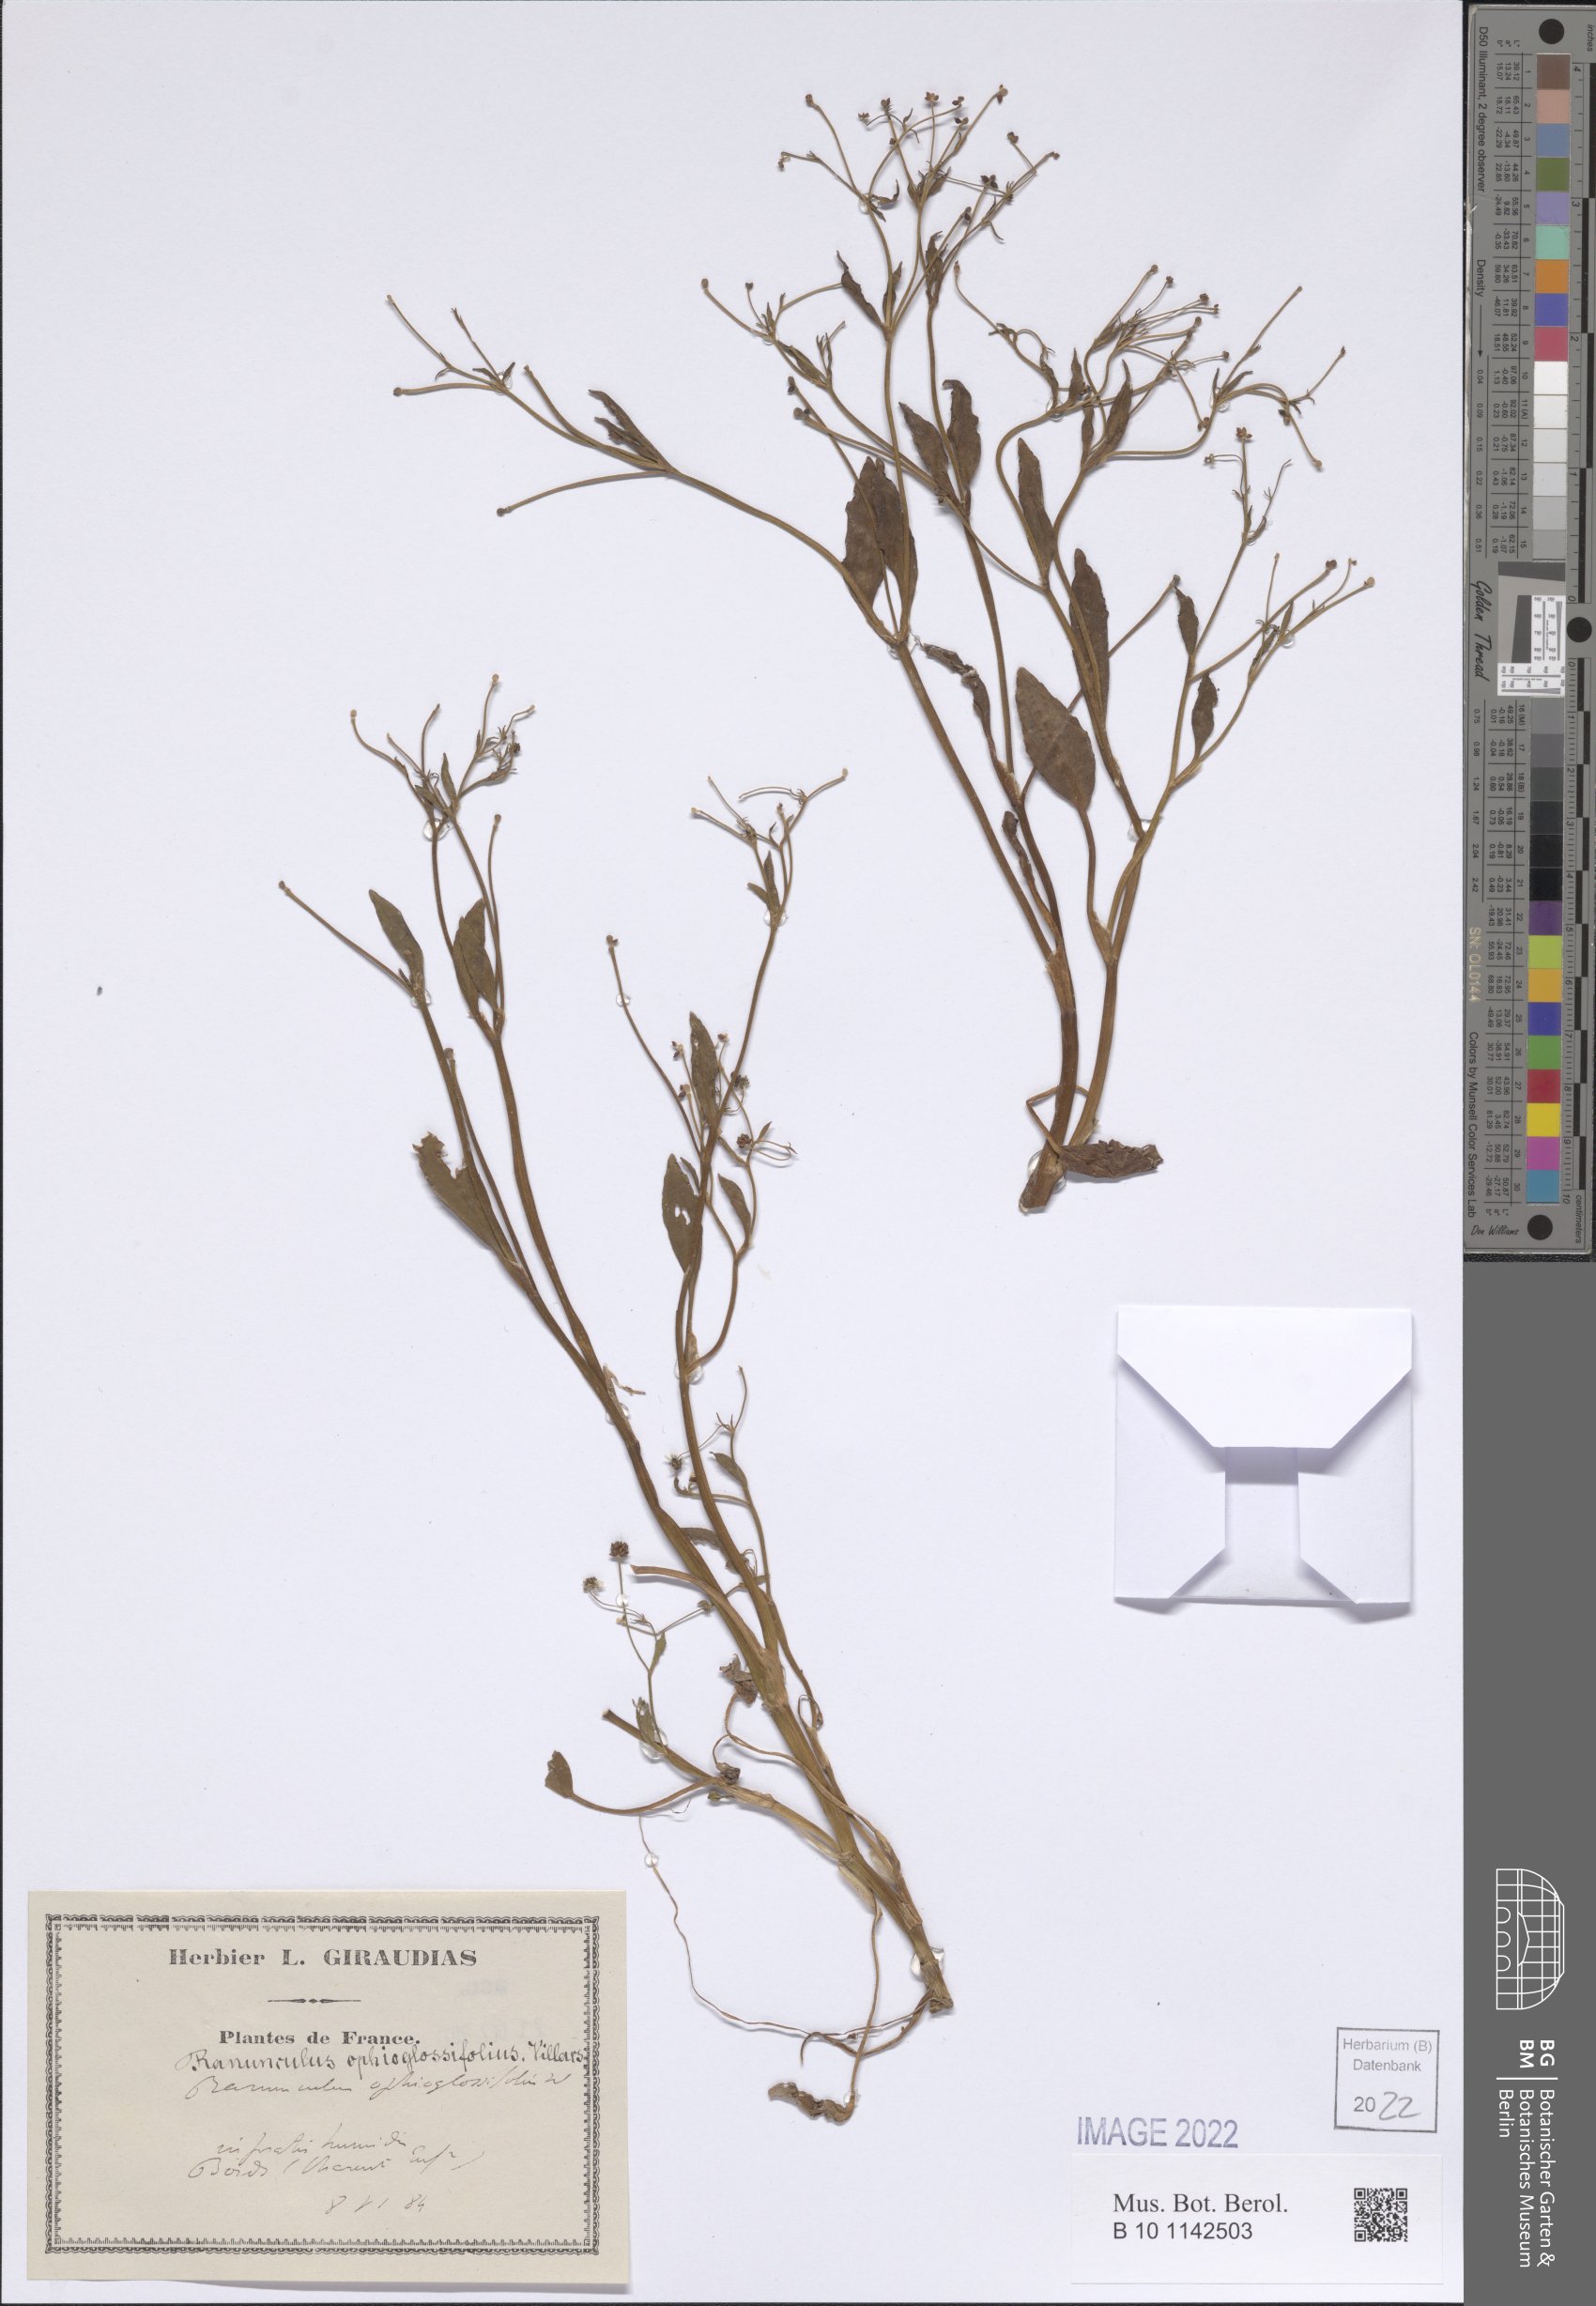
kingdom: Plantae
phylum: Tracheophyta
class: Magnoliopsida
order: Ranunculales
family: Ranunculaceae
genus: Ranunculus
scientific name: Ranunculus ophioglossifolius
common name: Adder's-tongue spearwort
